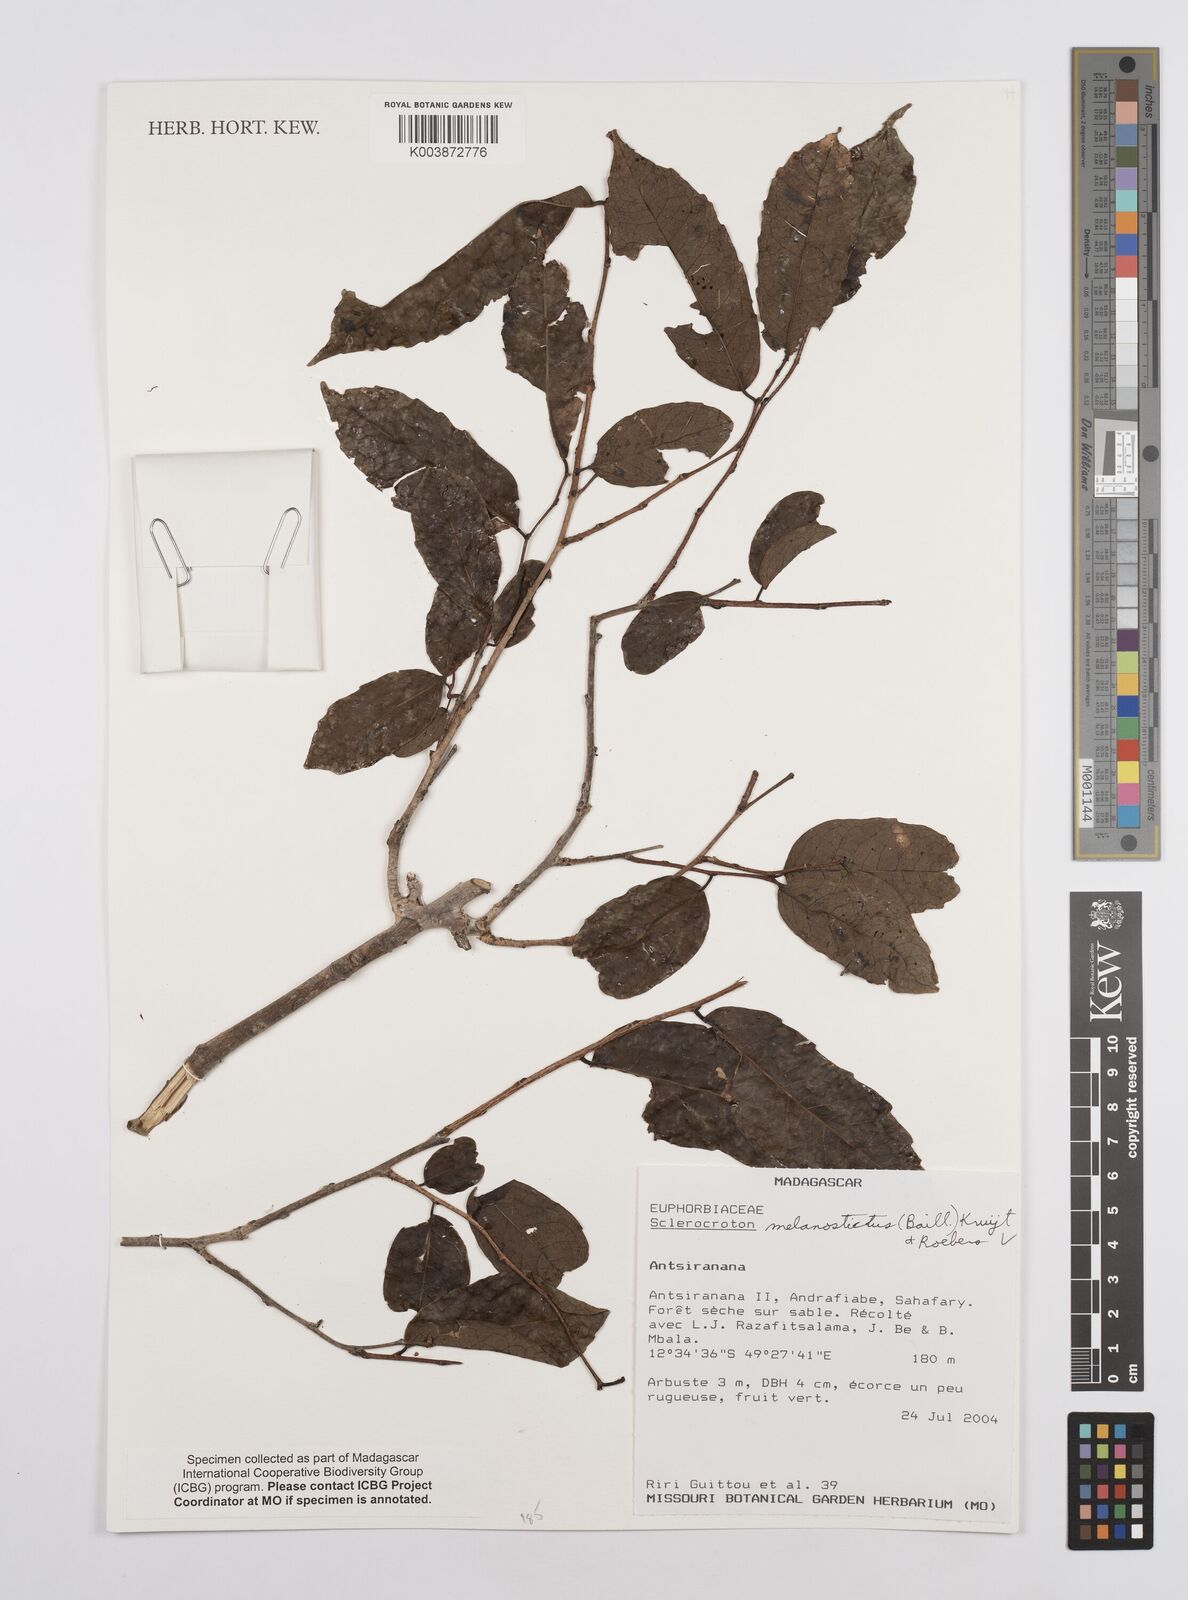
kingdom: Plantae
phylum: Tracheophyta
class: Magnoliopsida
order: Malpighiales
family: Euphorbiaceae
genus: Sclerocroton
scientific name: Sclerocroton melanostictus
